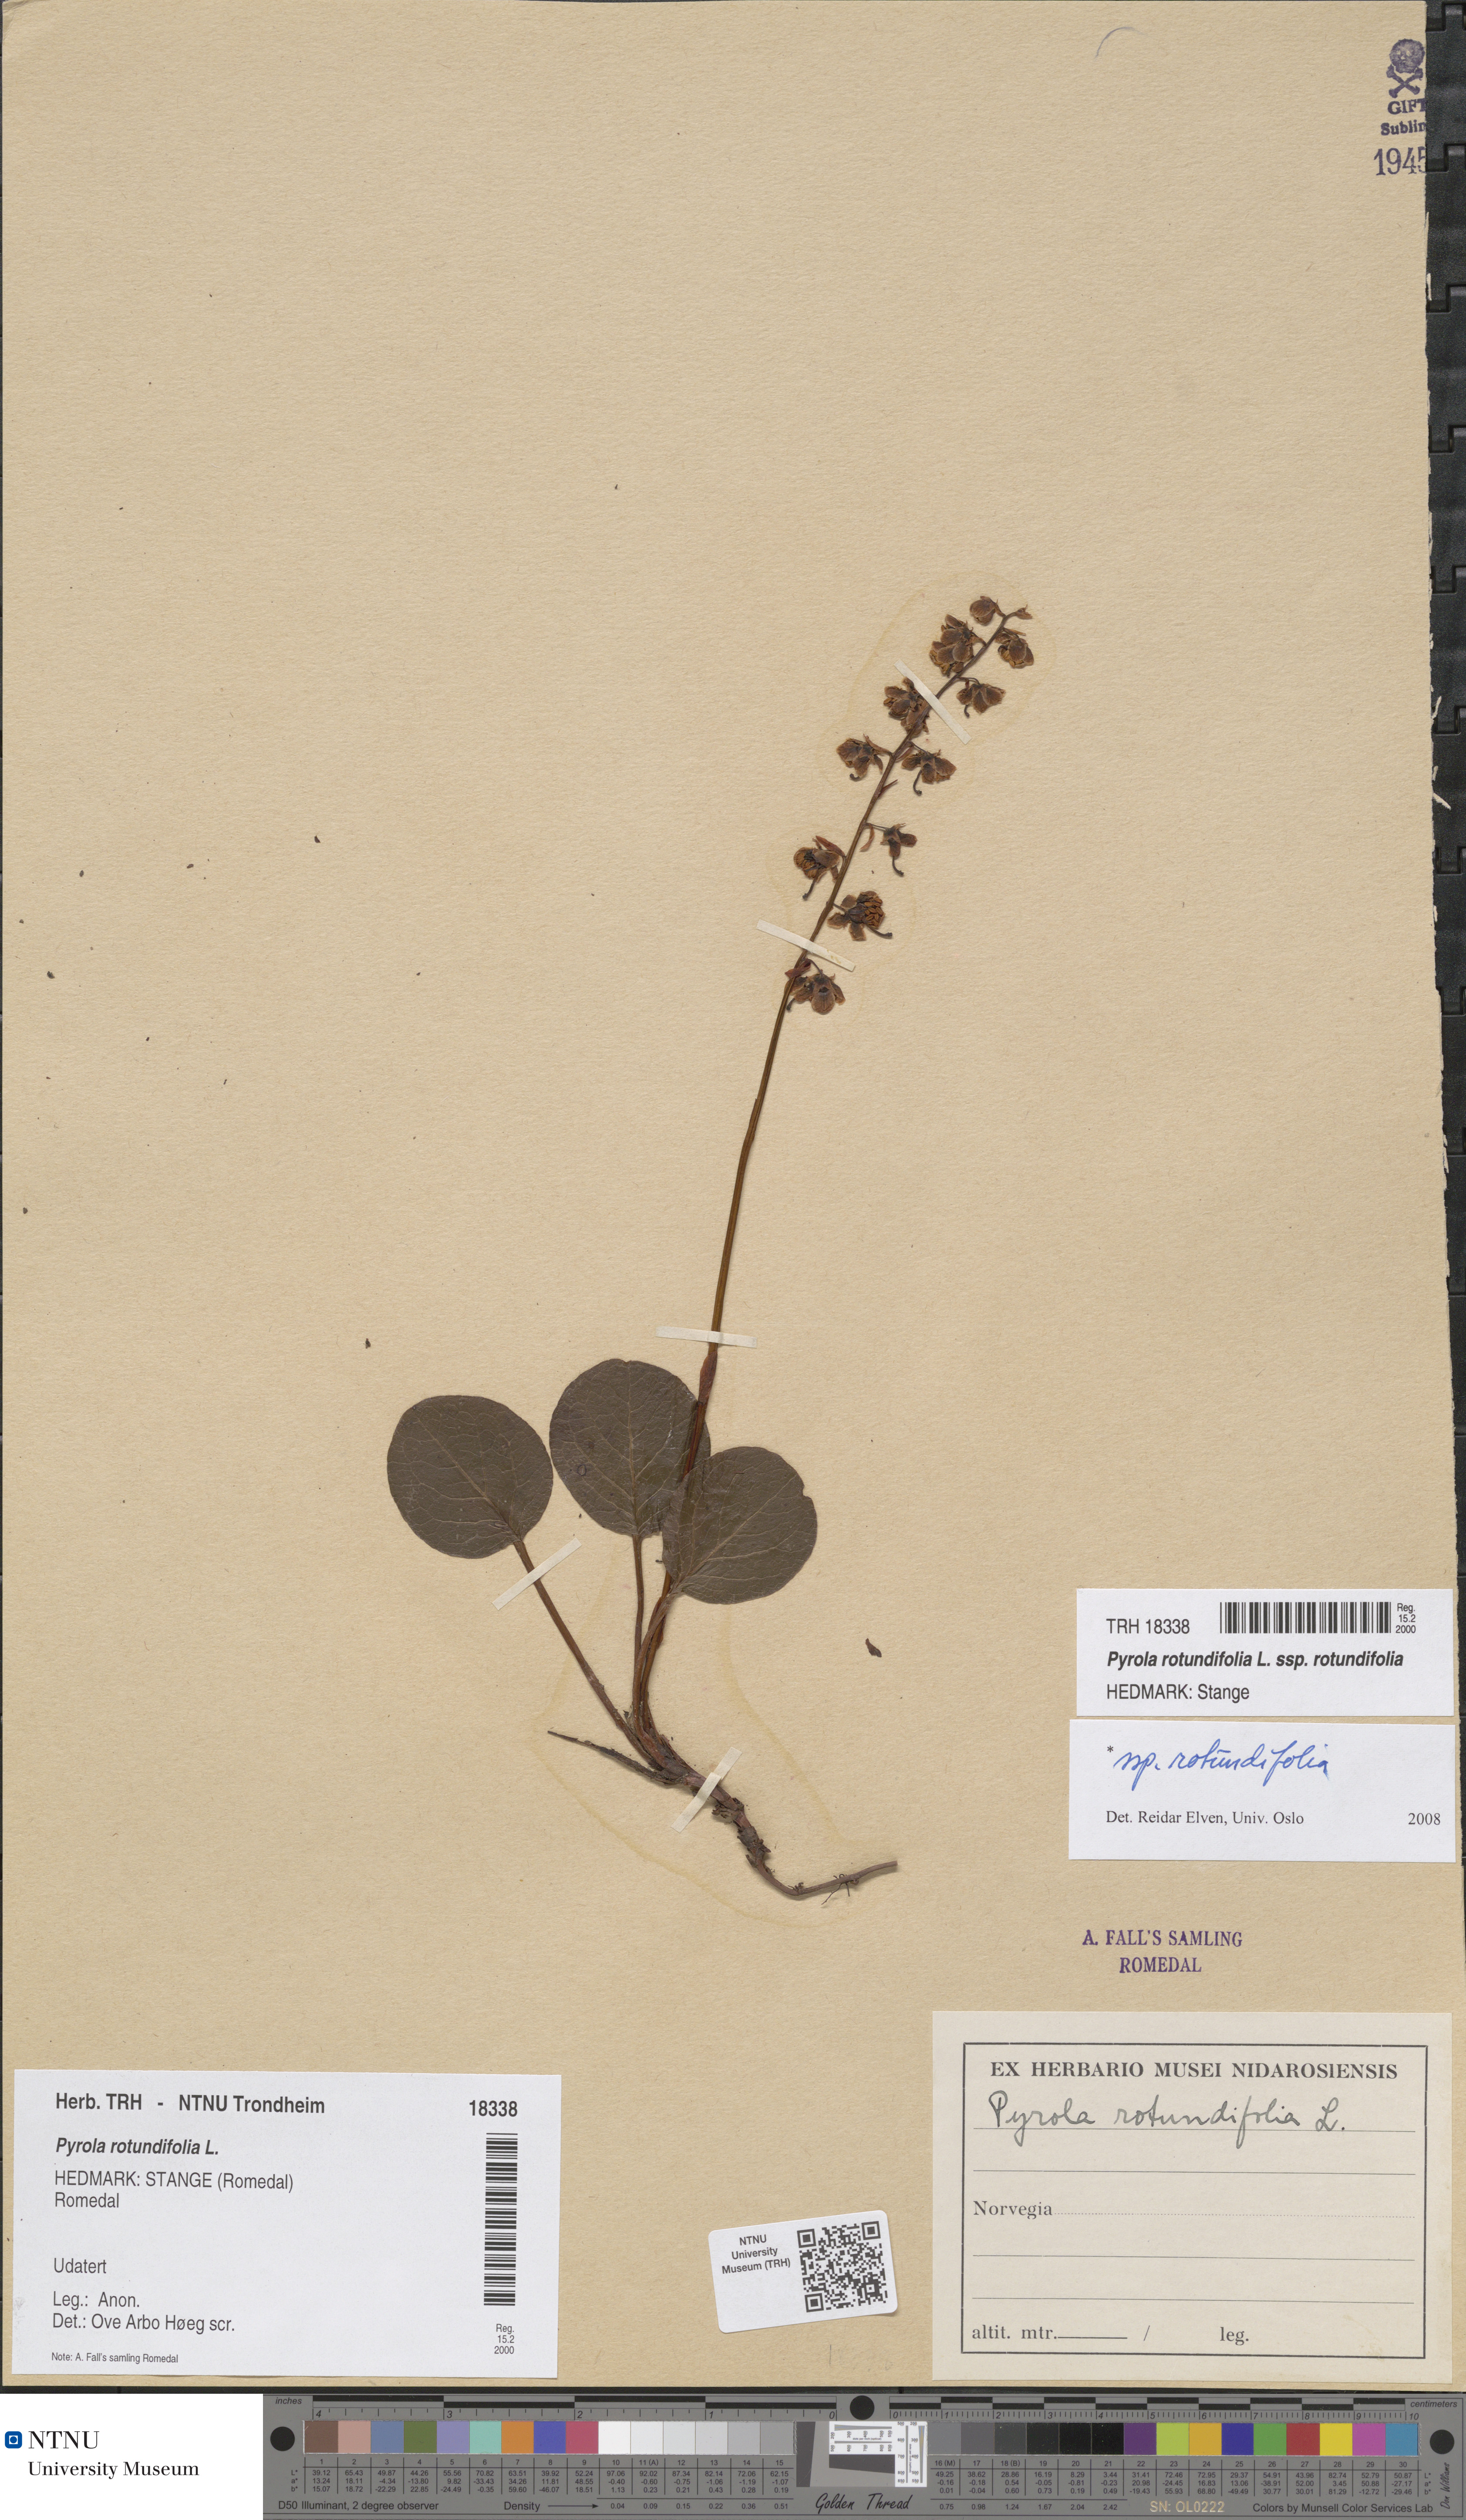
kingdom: Plantae
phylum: Tracheophyta
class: Magnoliopsida
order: Ericales
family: Ericaceae
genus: Pyrola
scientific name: Pyrola rotundifolia
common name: Round-leaved wintergreen
